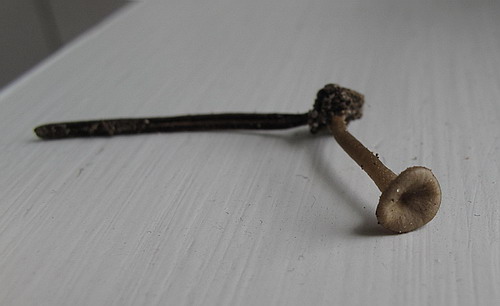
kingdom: Fungi
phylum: Basidiomycota
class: Agaricomycetes
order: Agaricales
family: Tricholomataceae
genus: Gamundia
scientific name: Gamundia striatula
